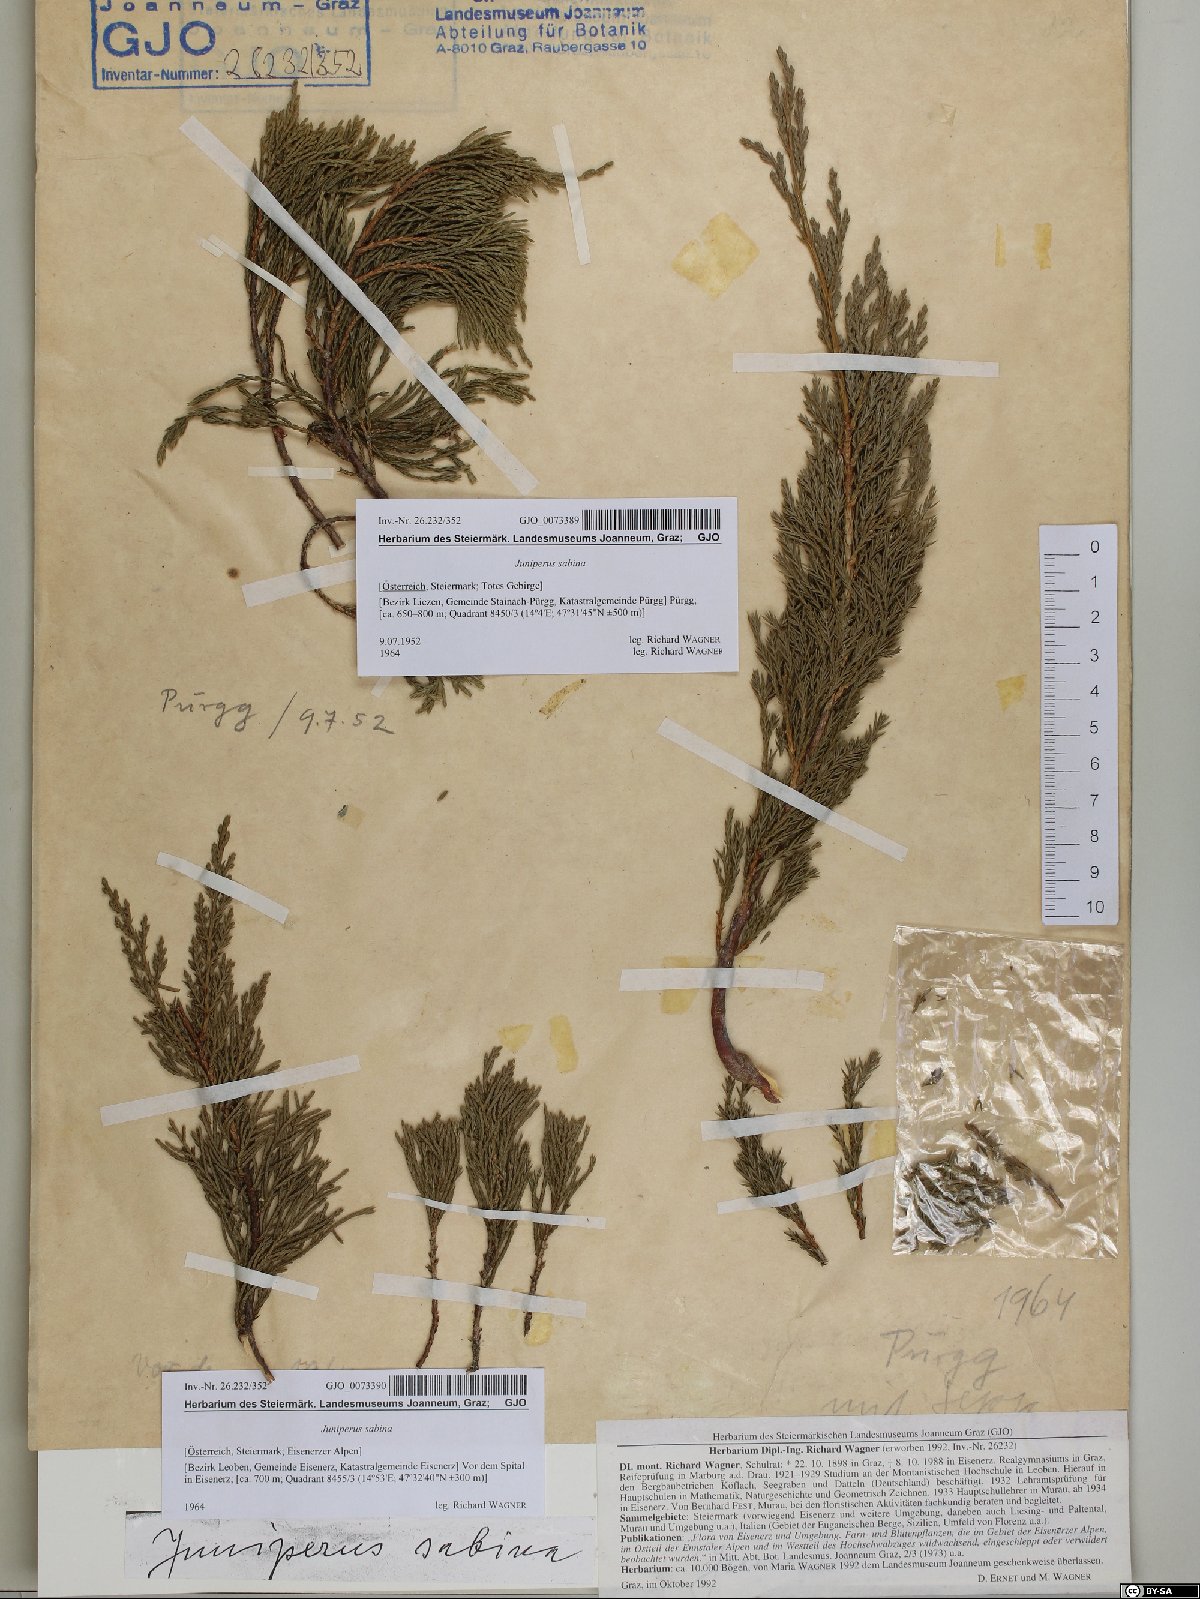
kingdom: Plantae
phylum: Tracheophyta
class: Pinopsida
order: Pinales
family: Cupressaceae
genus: Juniperus
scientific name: Juniperus sabina
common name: Savin
